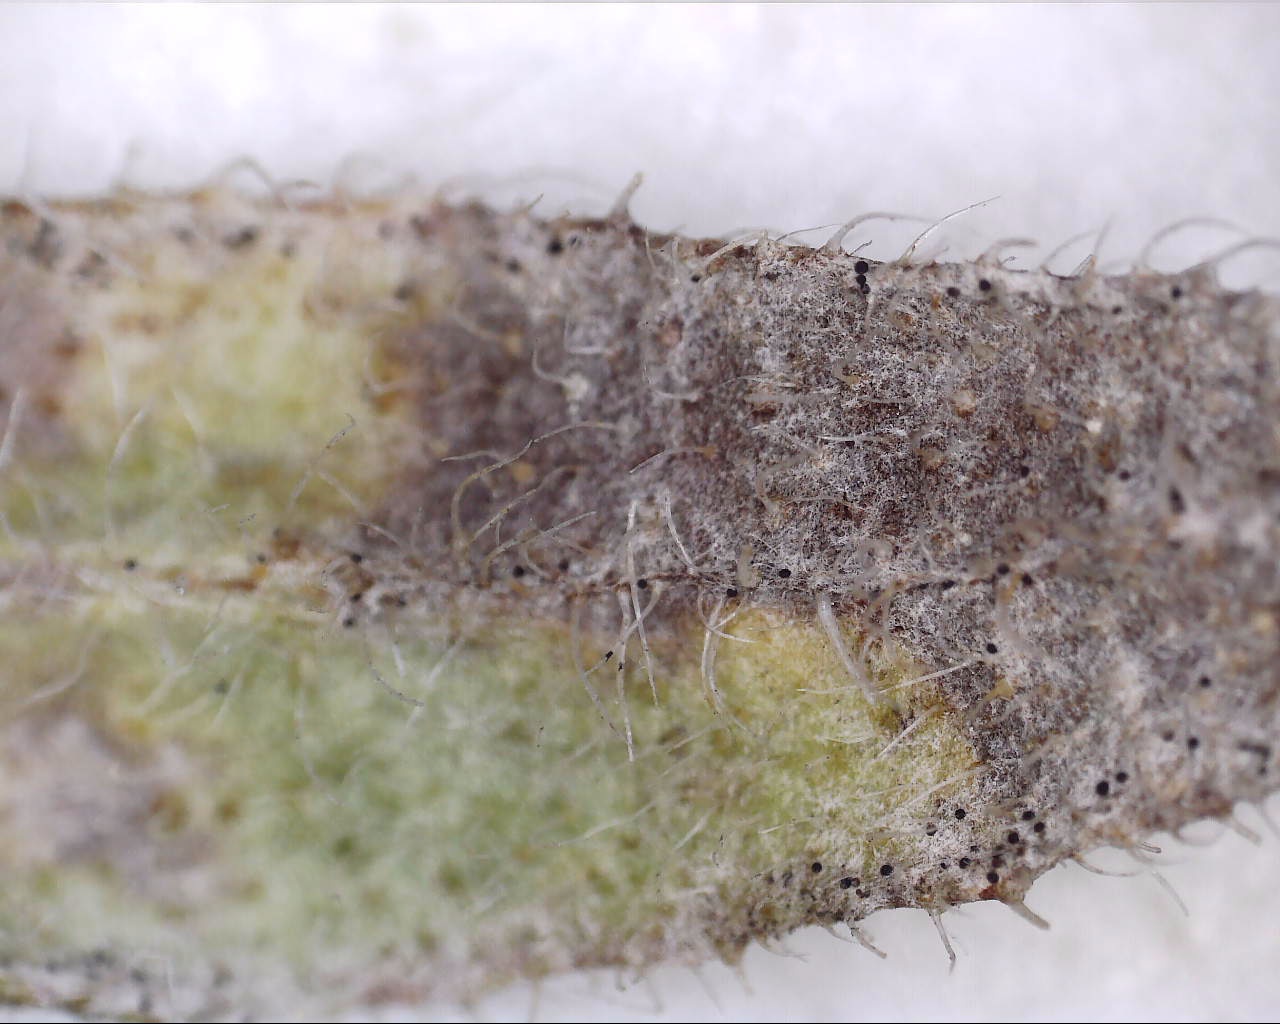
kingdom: Fungi
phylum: Ascomycota
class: Leotiomycetes
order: Helotiales
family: Erysiphaceae
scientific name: Erysiphaceae
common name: meldugfamilien
